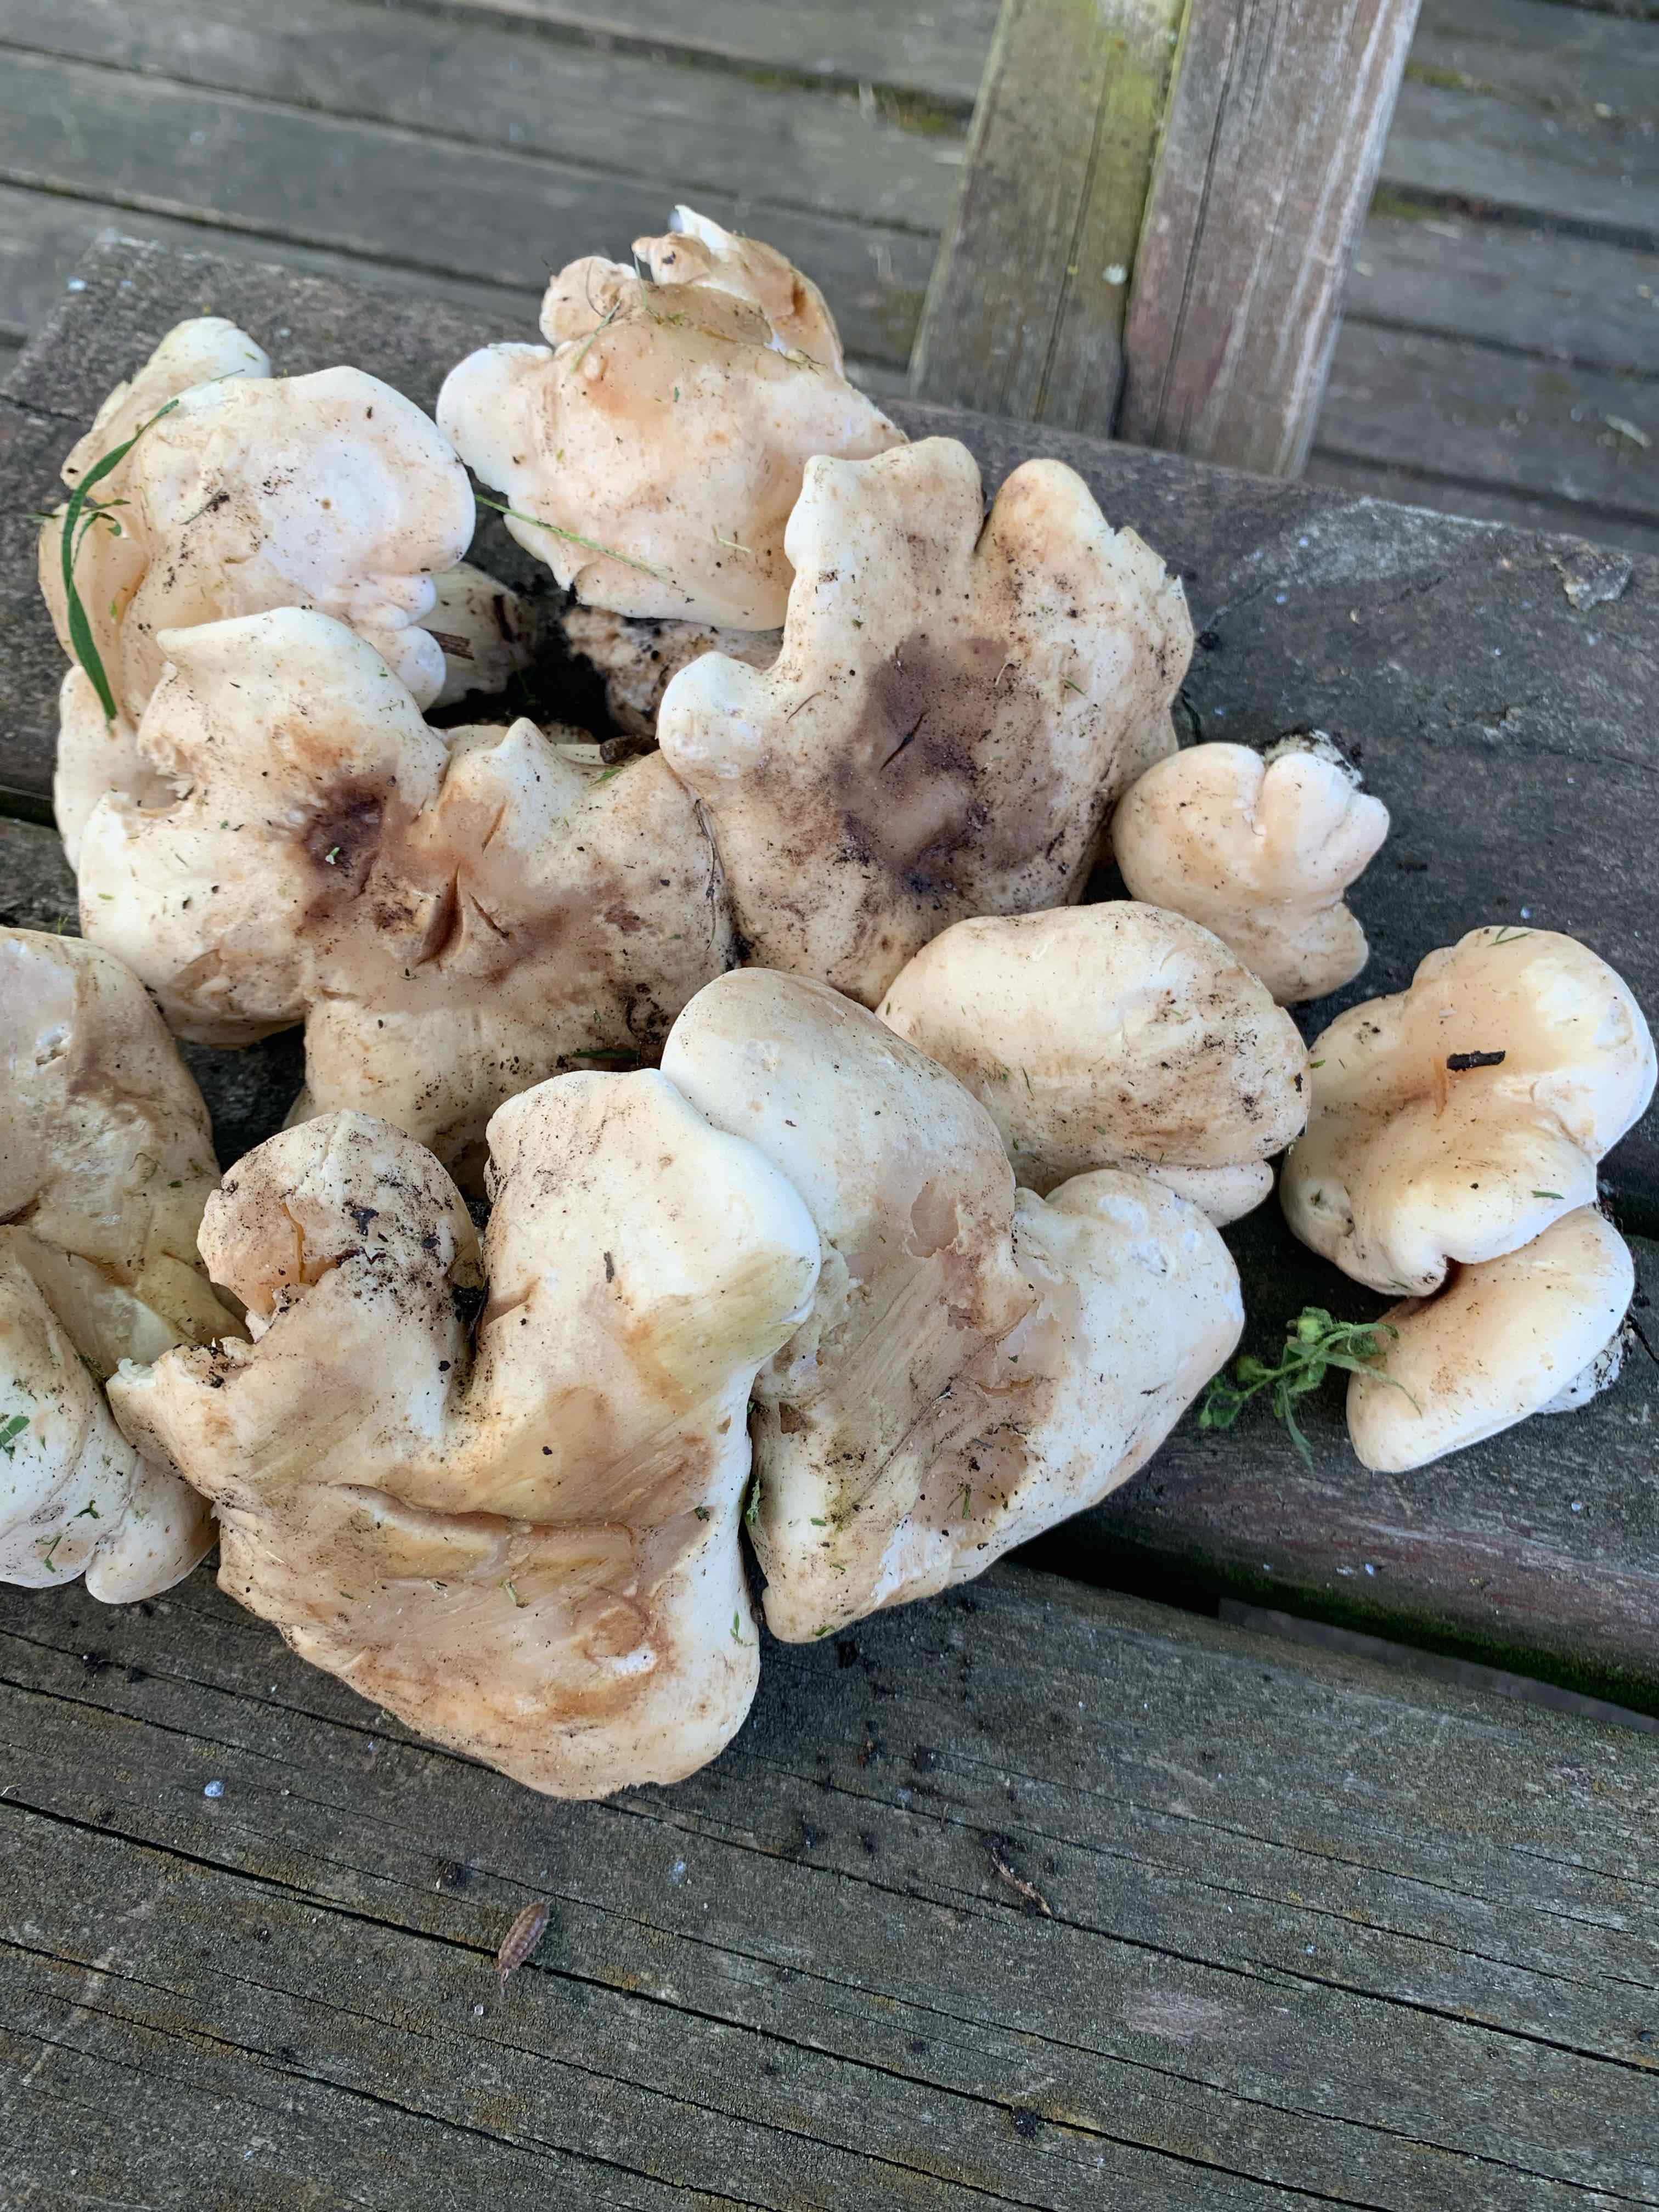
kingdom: Fungi
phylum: Basidiomycota
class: Agaricomycetes
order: Agaricales
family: Lyophyllaceae
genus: Calocybe
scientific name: Calocybe gambosa
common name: vårmusseron
